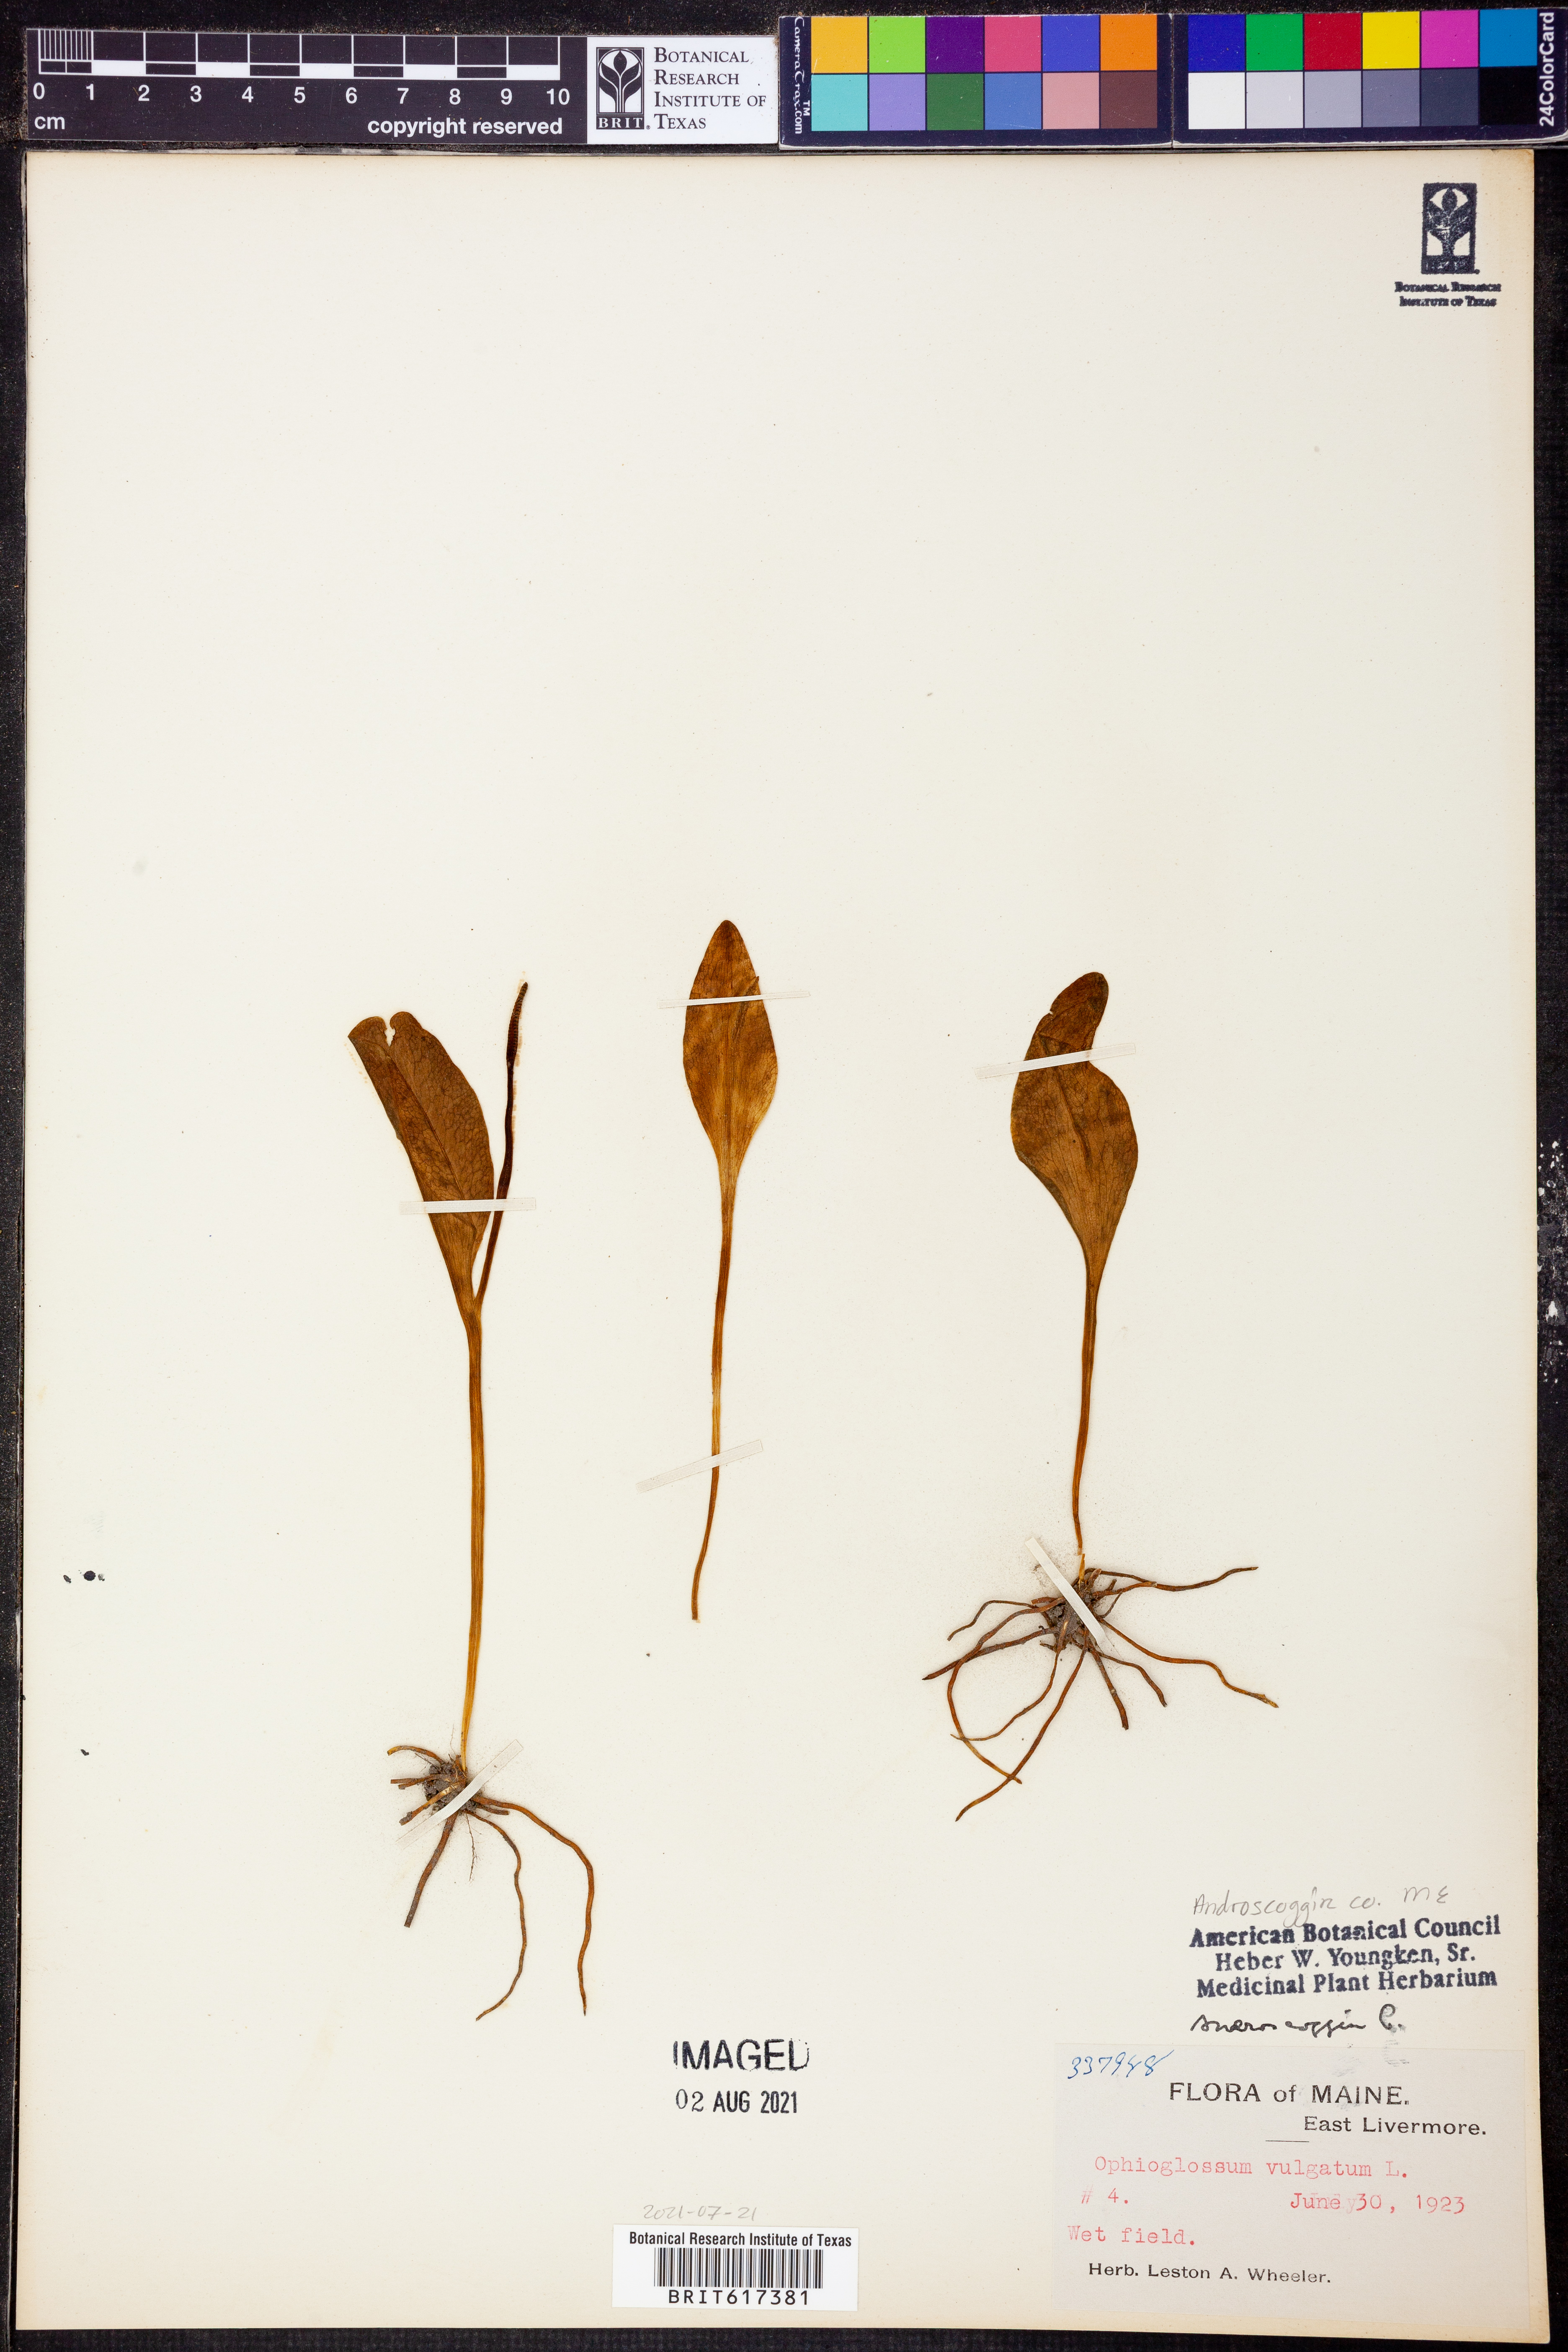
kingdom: Plantae
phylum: Tracheophyta
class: Polypodiopsida
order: Ophioglossales
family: Ophioglossaceae
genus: Ophioglossum
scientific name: Ophioglossum vulgatum
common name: Adder's-tongue
